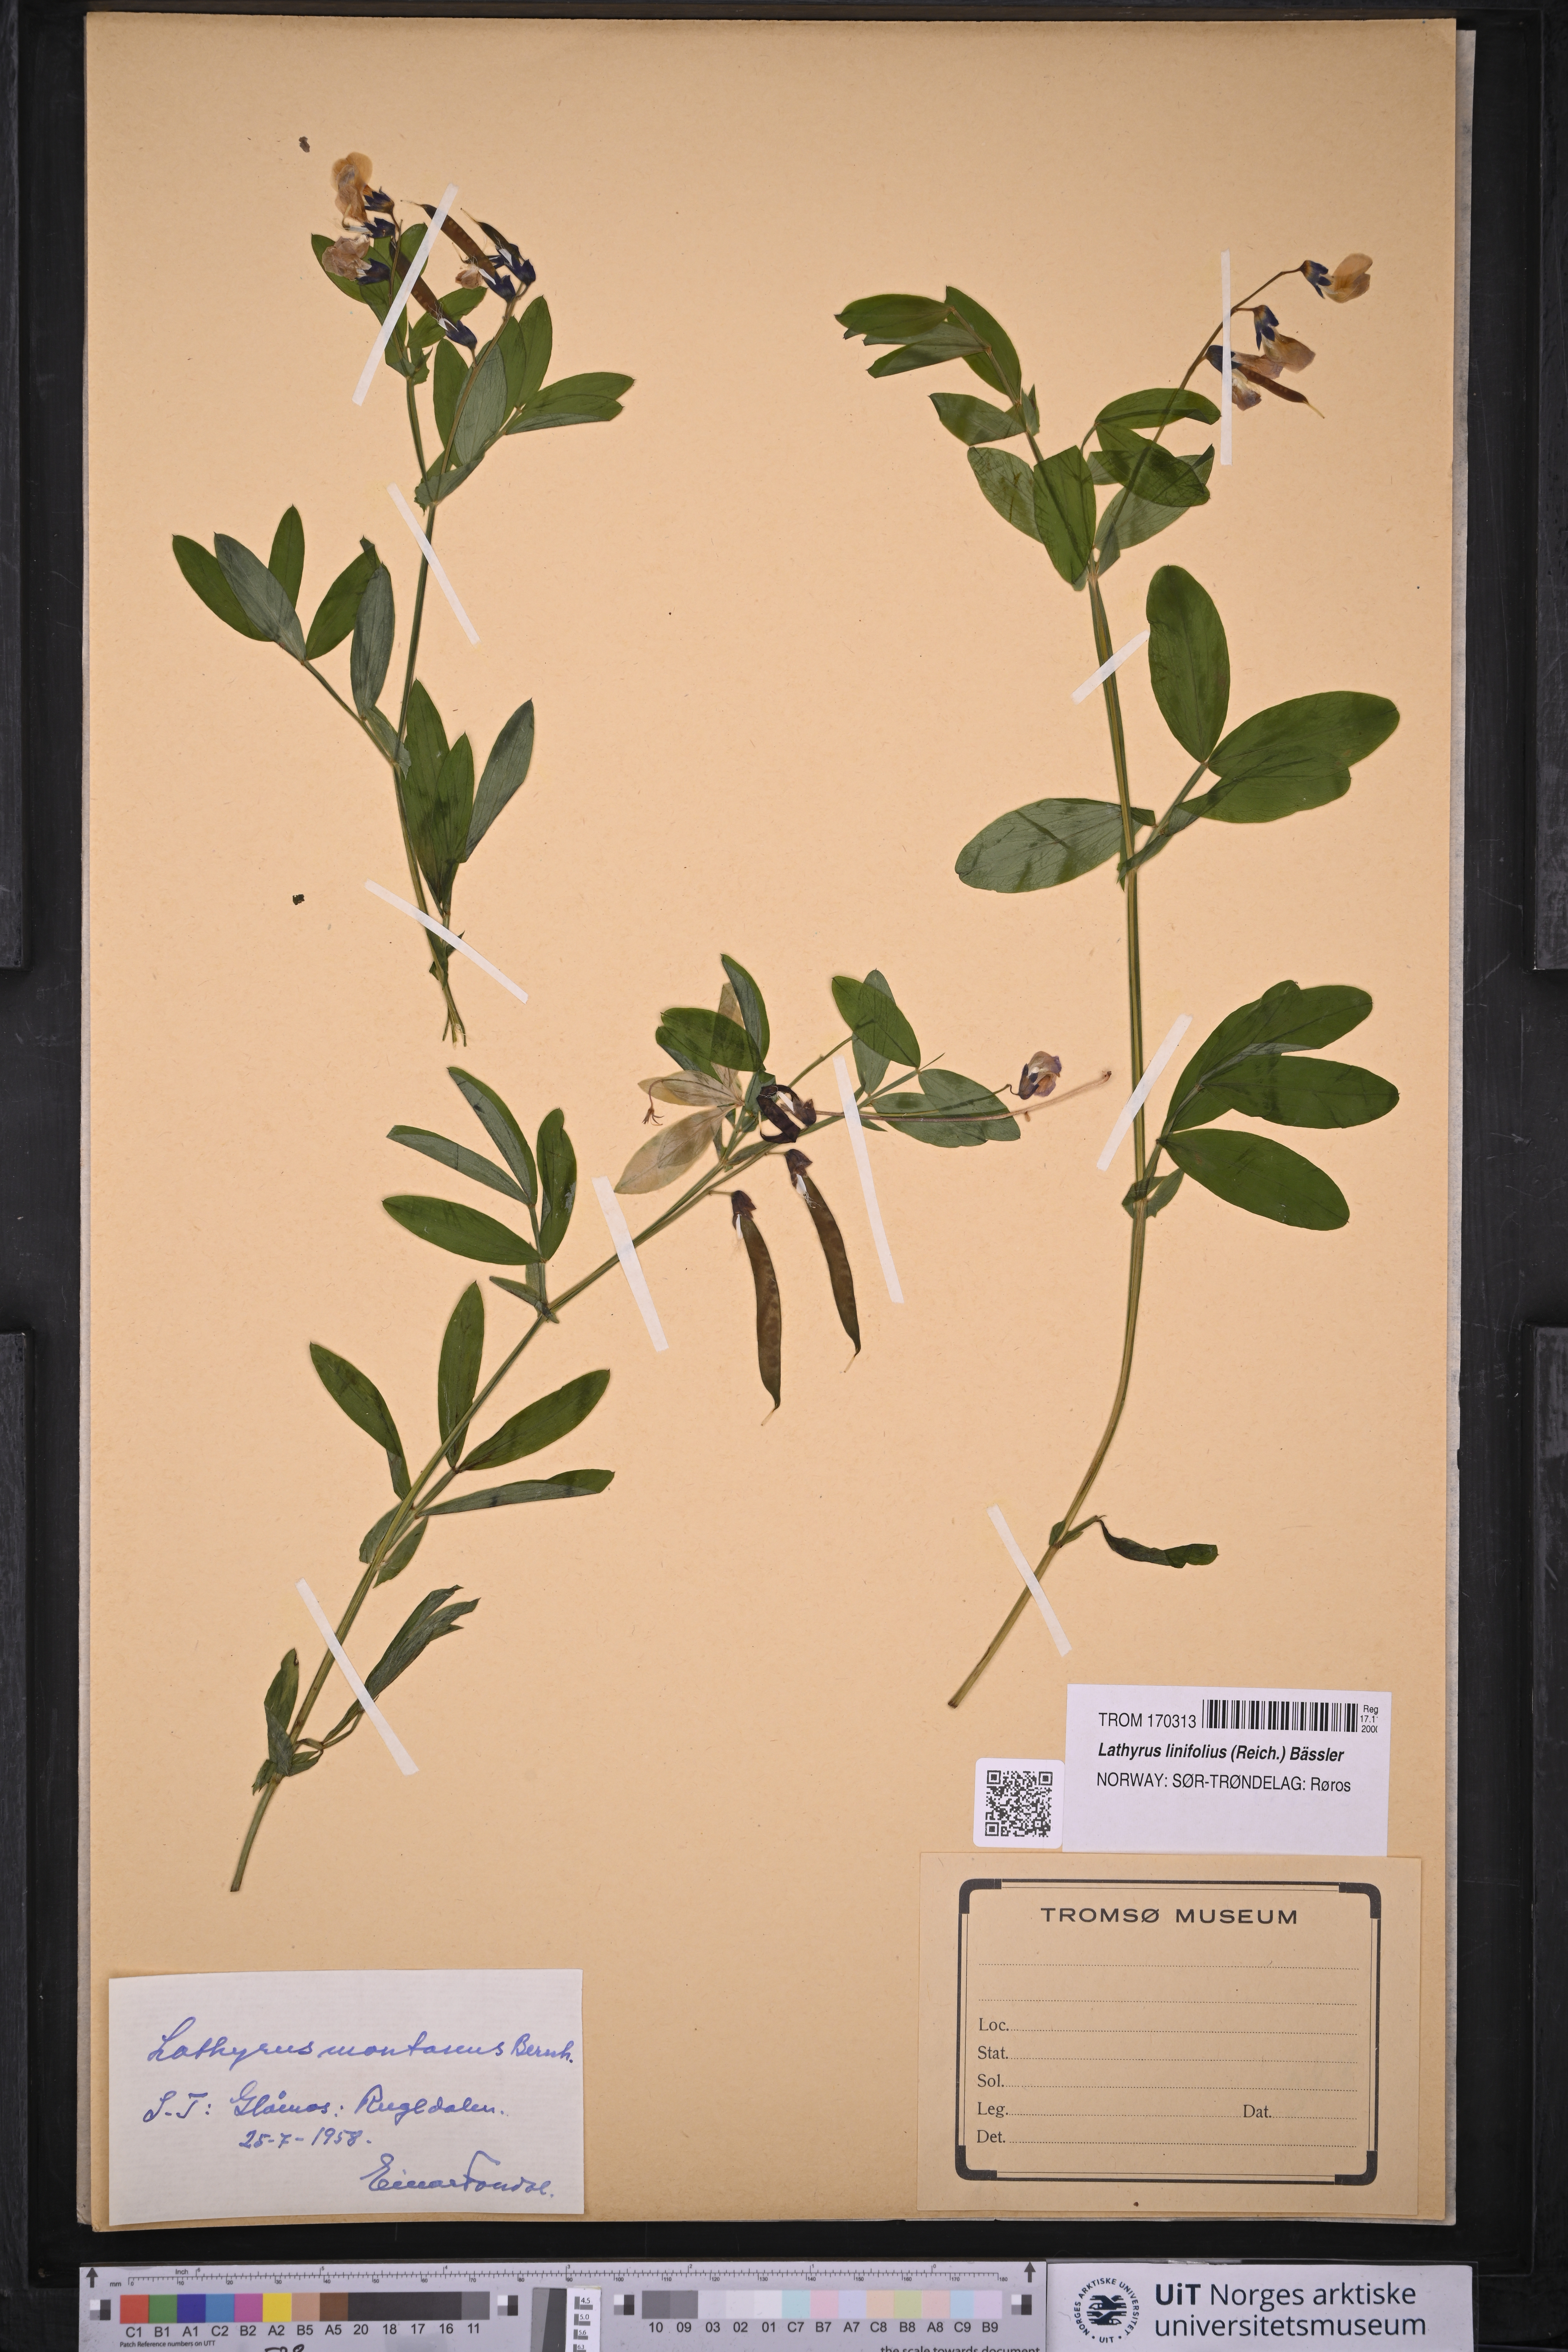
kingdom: Plantae
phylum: Tracheophyta
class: Magnoliopsida
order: Fabales
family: Fabaceae
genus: Lathyrus
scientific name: Lathyrus linifolius
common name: Bitter-vetch
